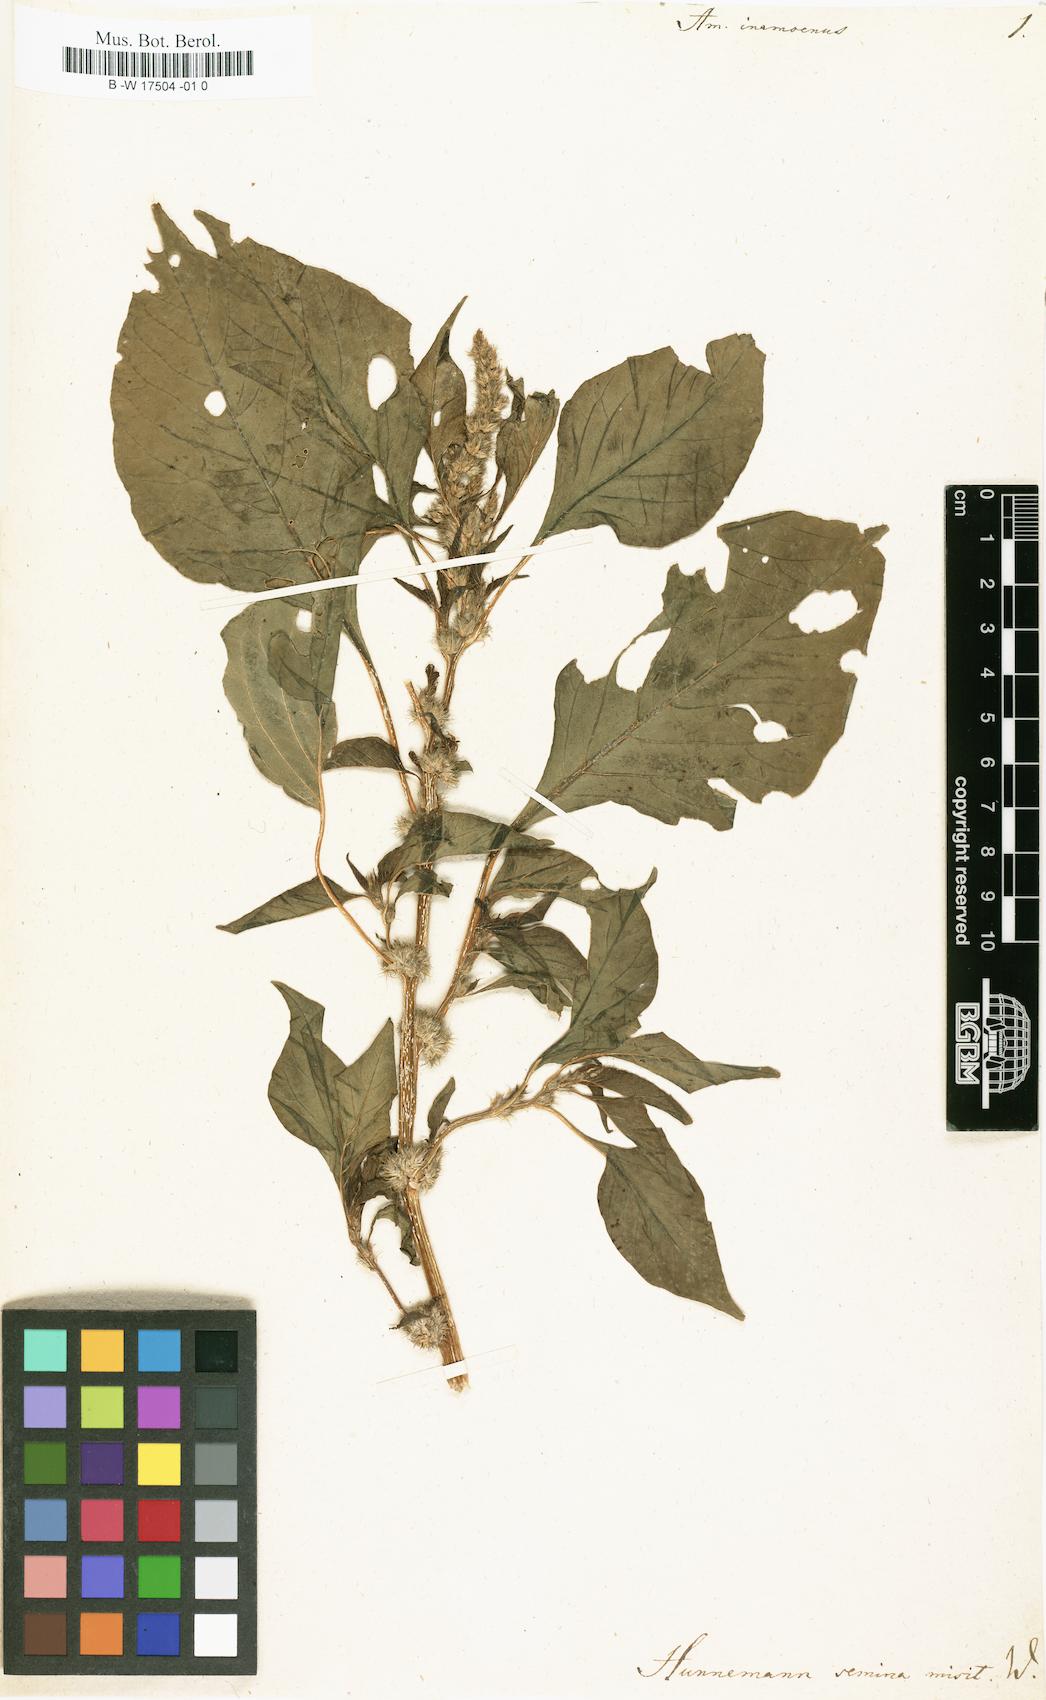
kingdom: Plantae
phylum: Tracheophyta
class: Magnoliopsida
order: Caryophyllales
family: Amaranthaceae
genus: Amaranthus
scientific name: Amaranthus tricolor
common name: Joseph's-coat
